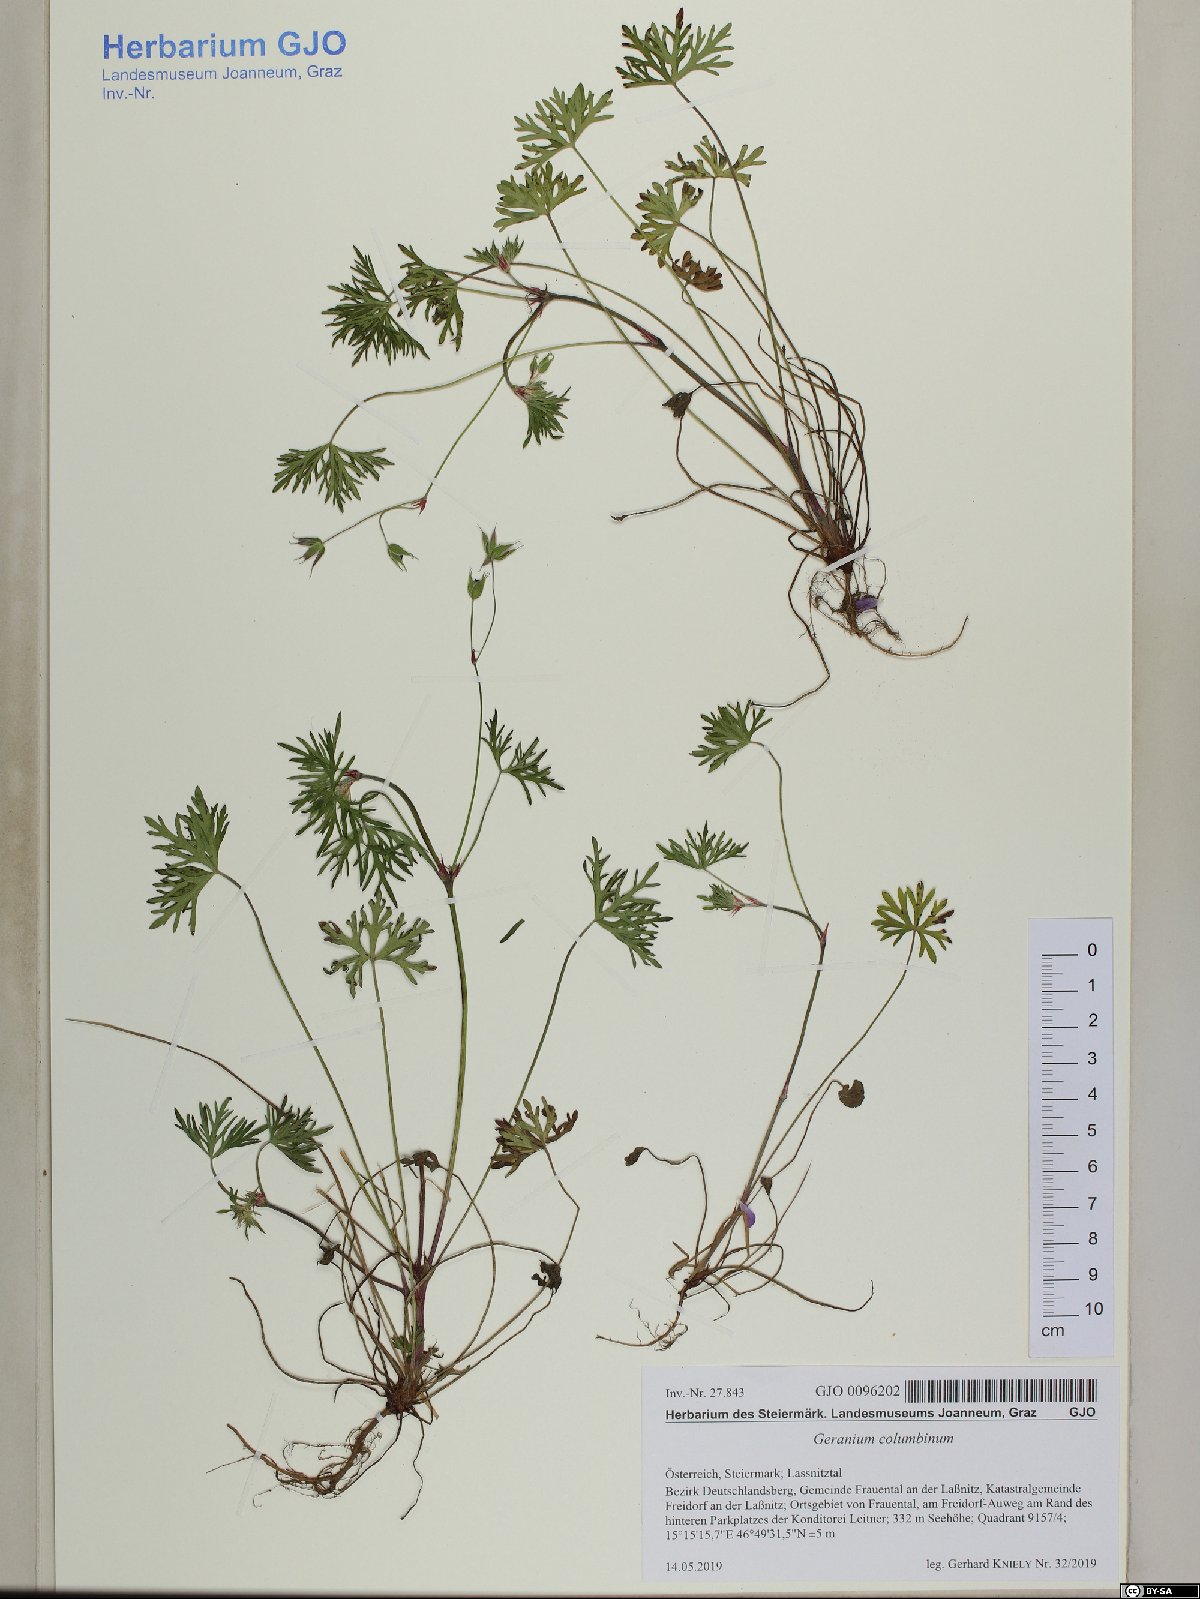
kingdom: Plantae
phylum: Tracheophyta
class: Magnoliopsida
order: Geraniales
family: Geraniaceae
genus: Geranium
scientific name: Geranium columbinum
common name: Long-stalked crane's-bill
